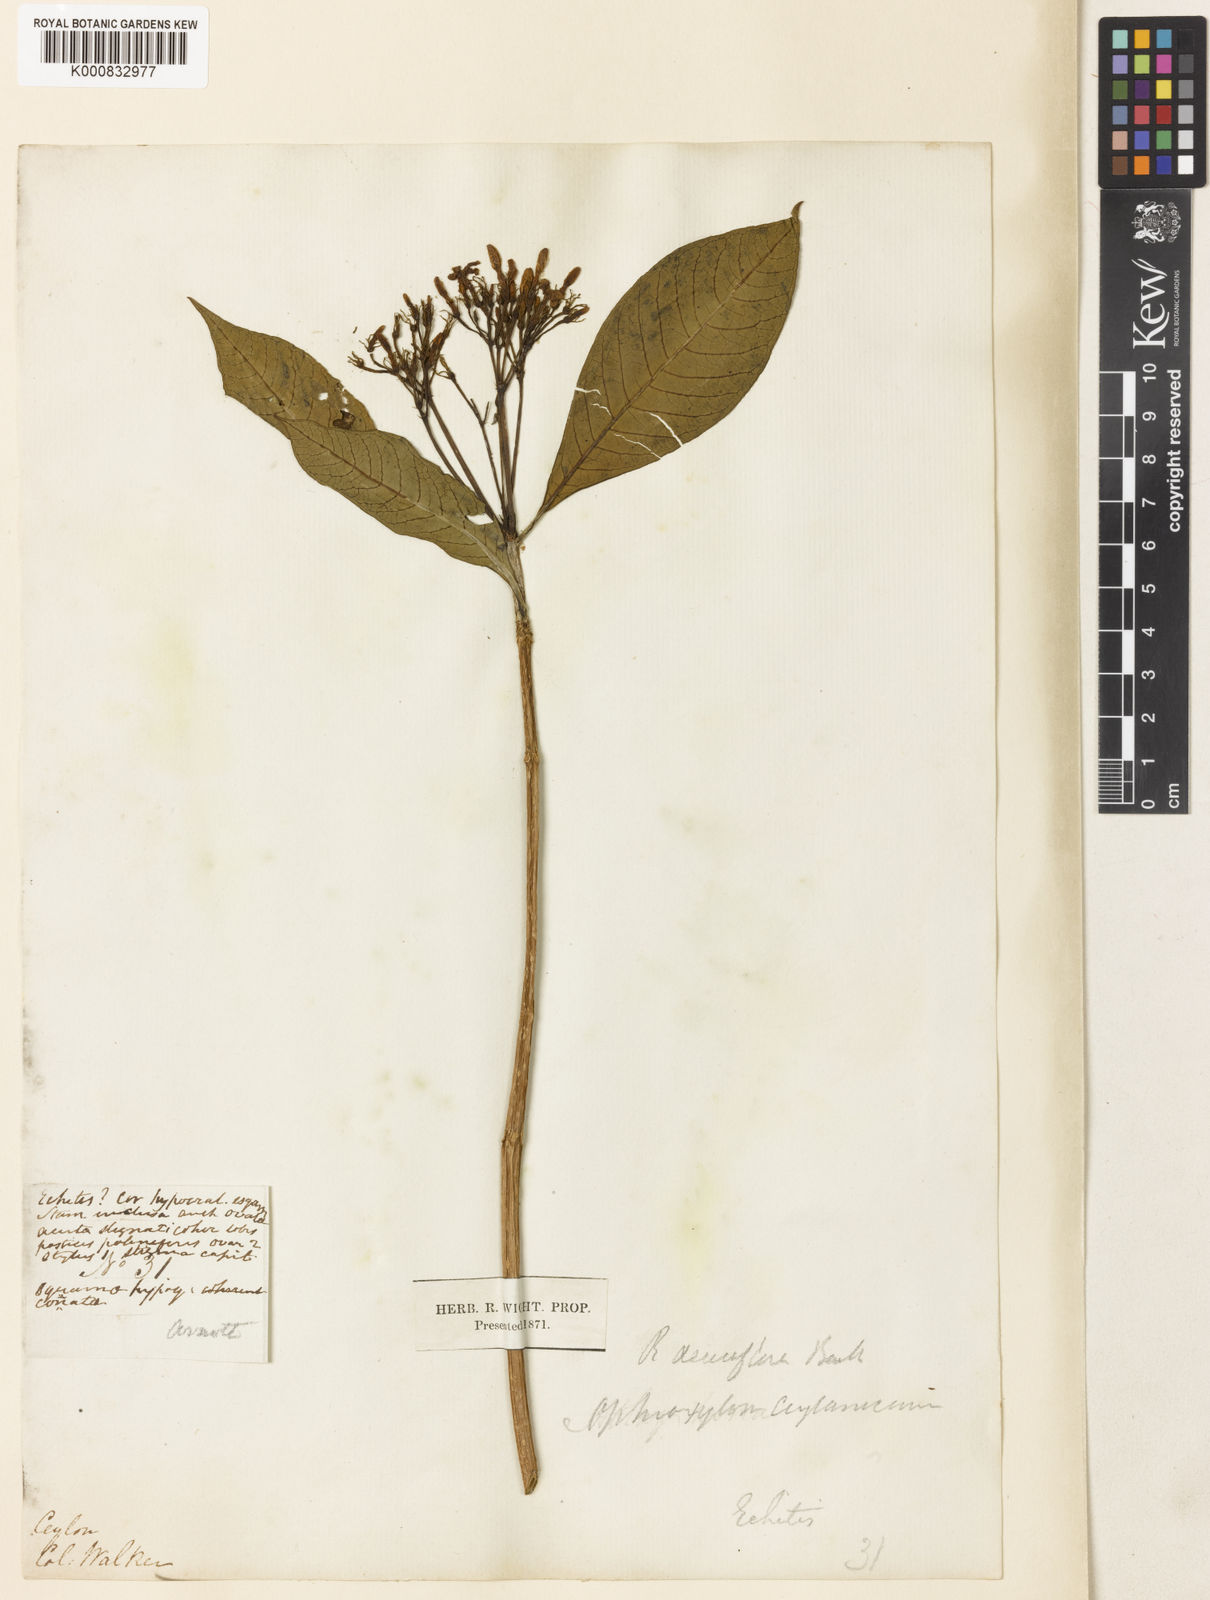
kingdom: Plantae
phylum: Tracheophyta
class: Magnoliopsida
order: Gentianales
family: Apocynaceae
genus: Rauvolfia
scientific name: Rauvolfia verticillata
